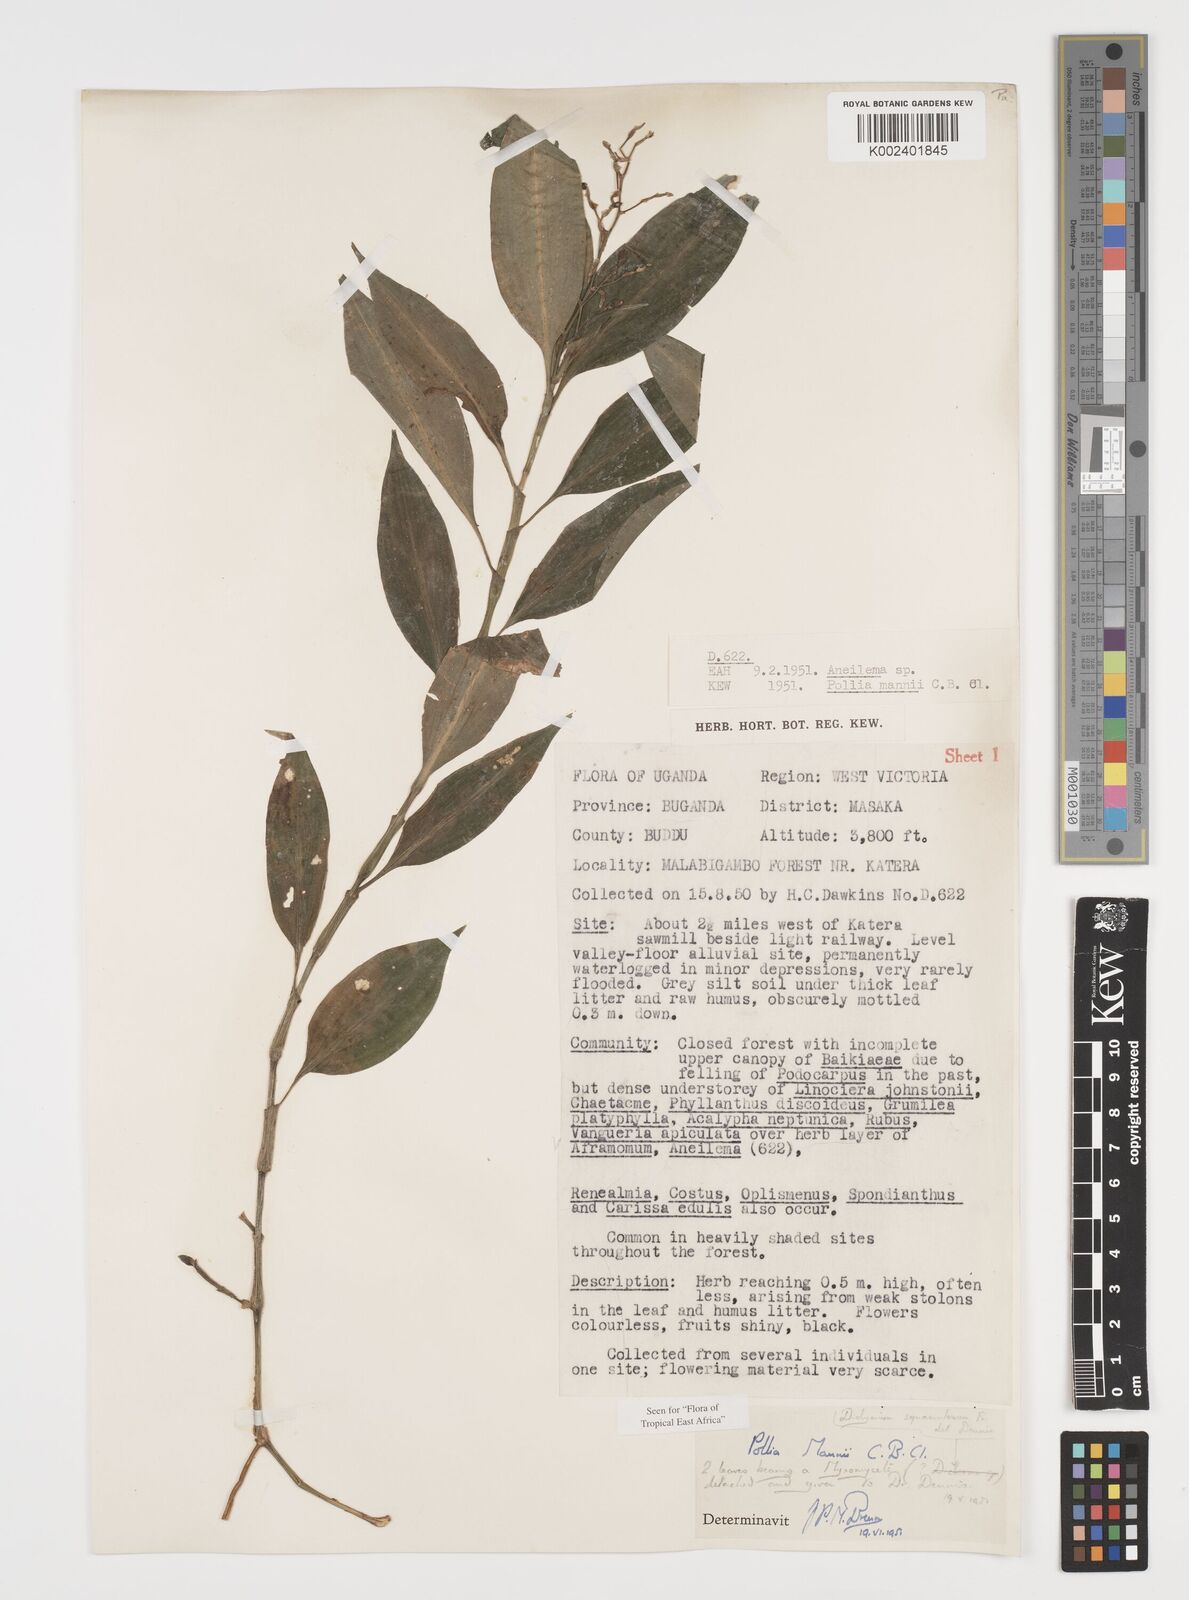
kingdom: Plantae
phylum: Tracheophyta
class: Liliopsida
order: Commelinales
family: Commelinaceae
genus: Pollia
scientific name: Pollia mannii
